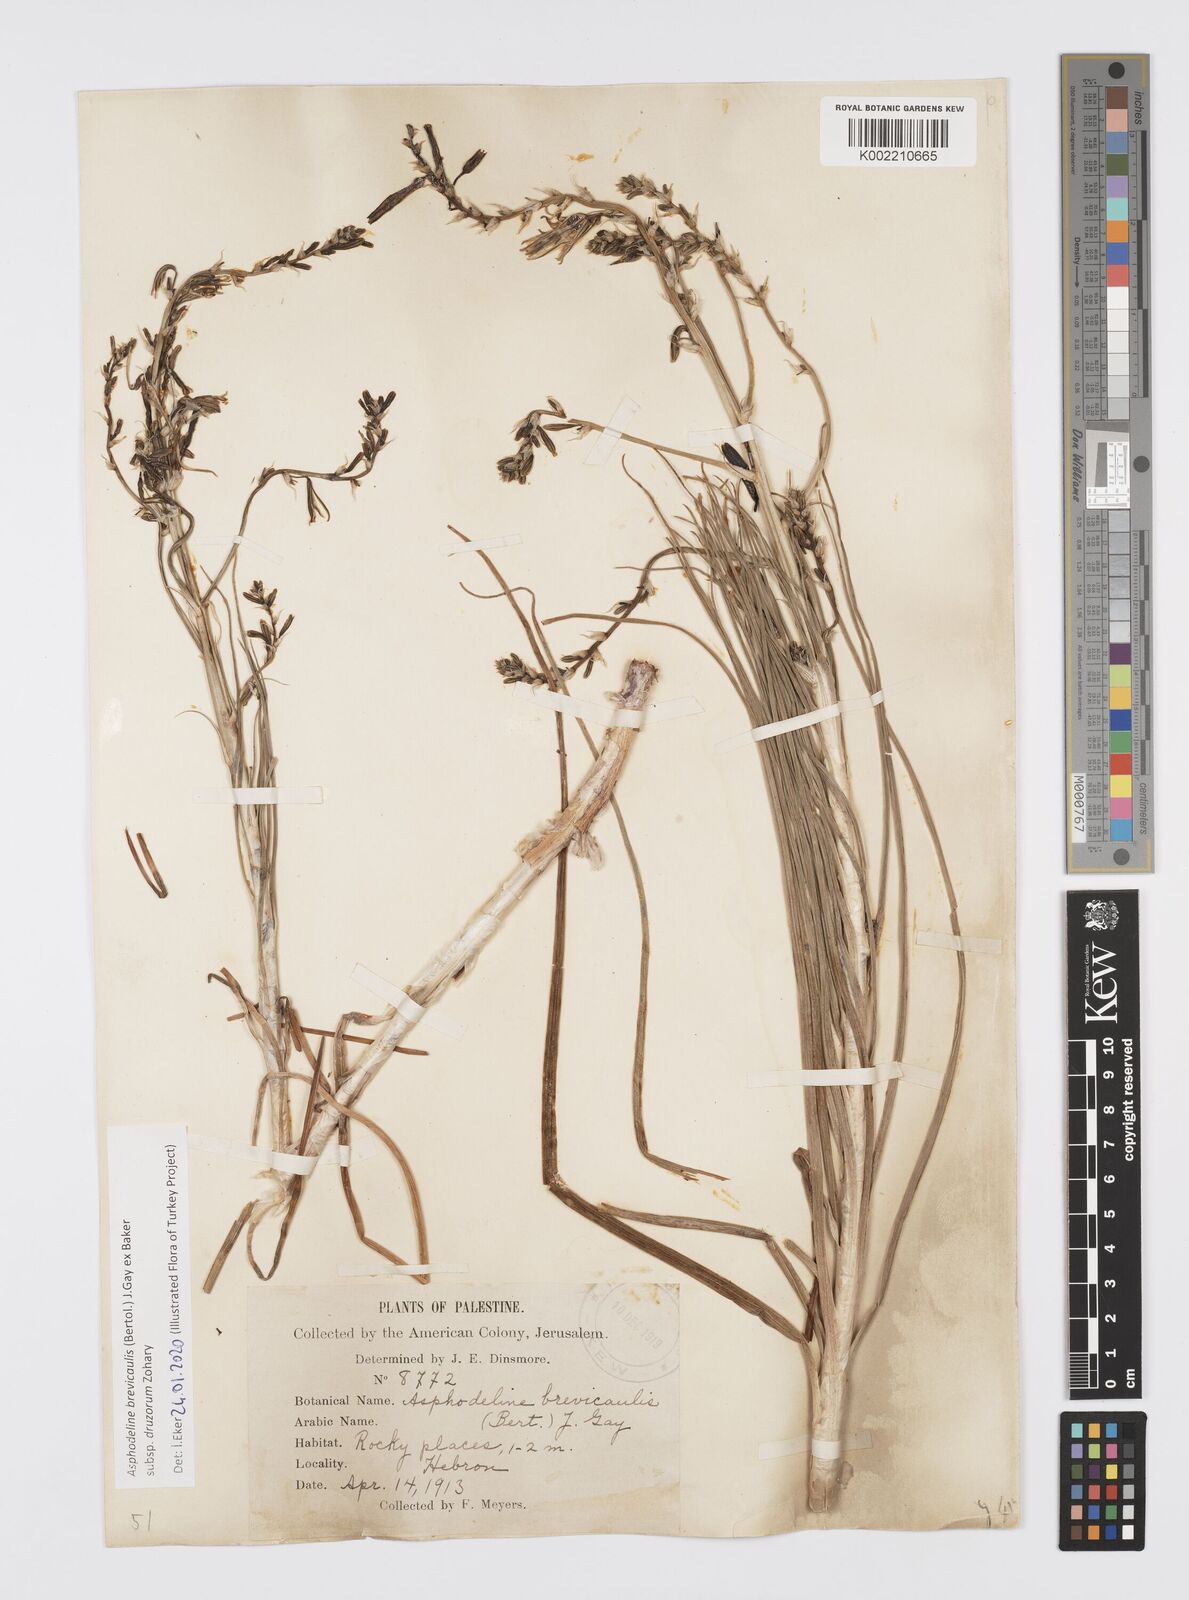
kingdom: Plantae
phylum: Tracheophyta
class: Liliopsida
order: Asparagales
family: Asphodelaceae
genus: Asphodeline
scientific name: Asphodeline brevicaulis
